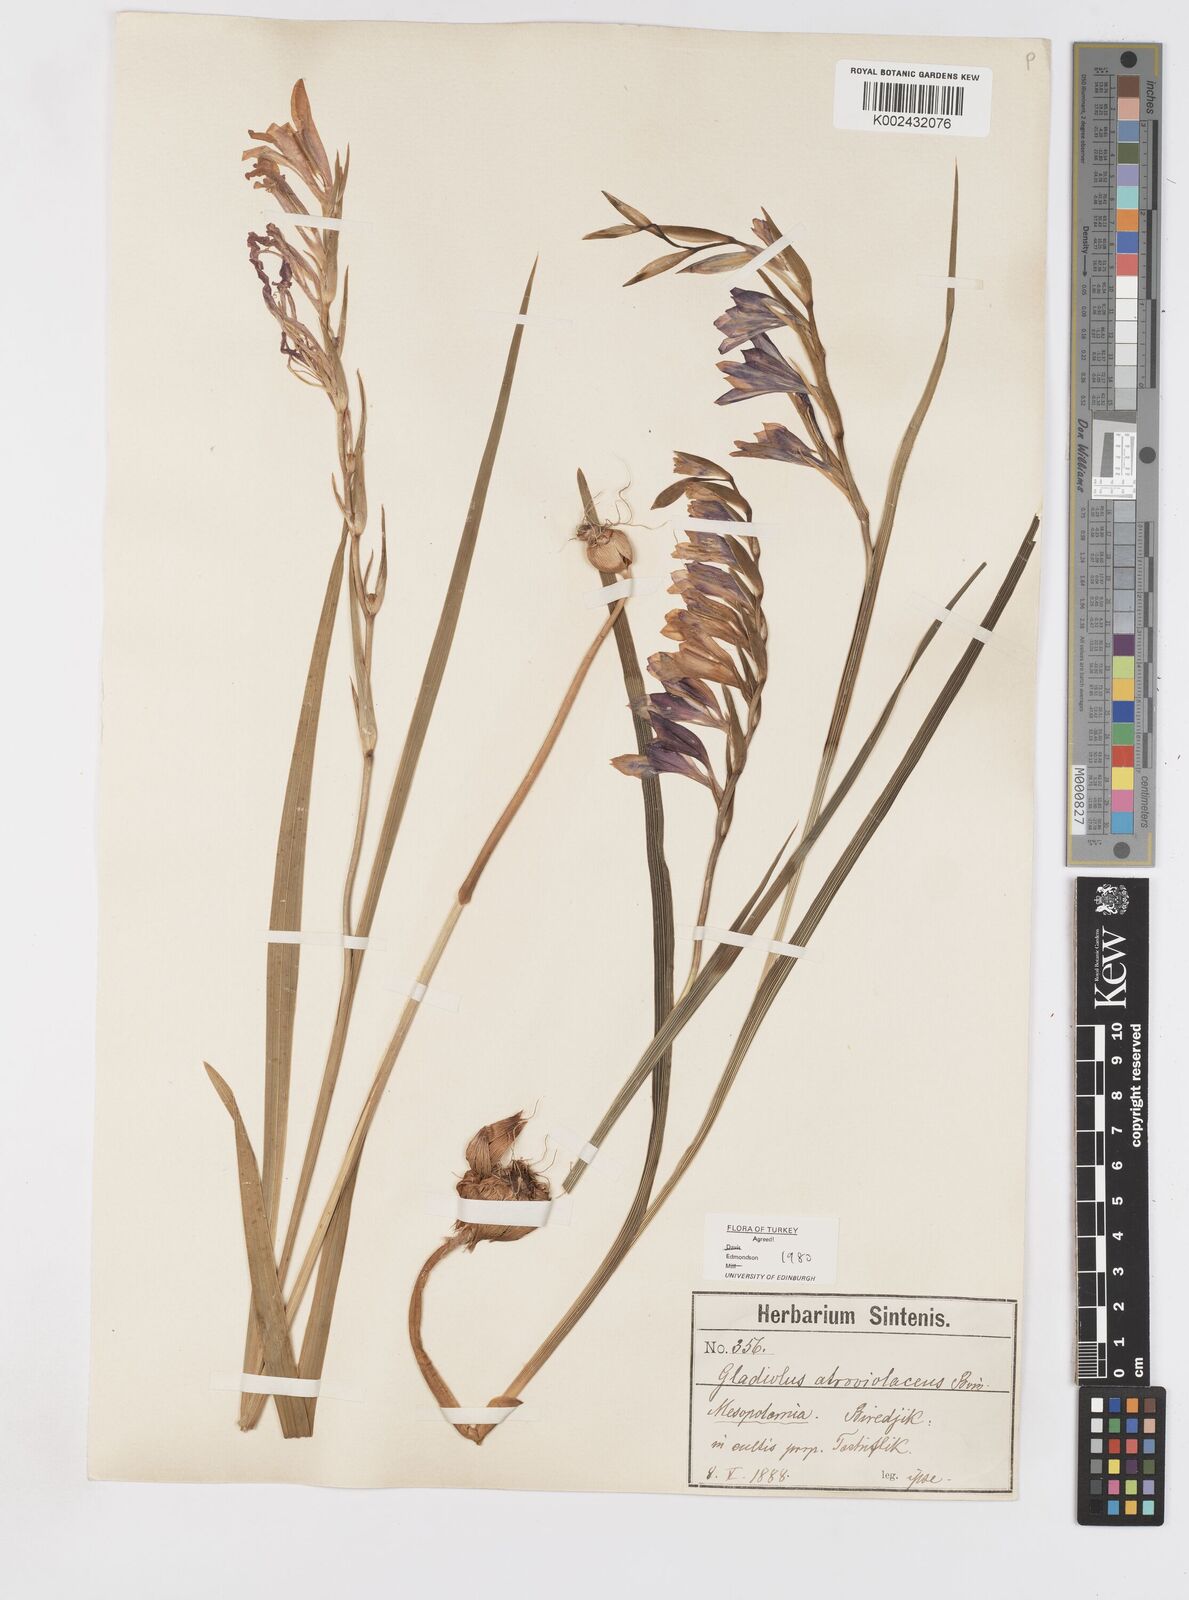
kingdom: Plantae
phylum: Tracheophyta
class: Liliopsida
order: Asparagales
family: Iridaceae
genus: Gladiolus
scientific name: Gladiolus atroviolaceus
